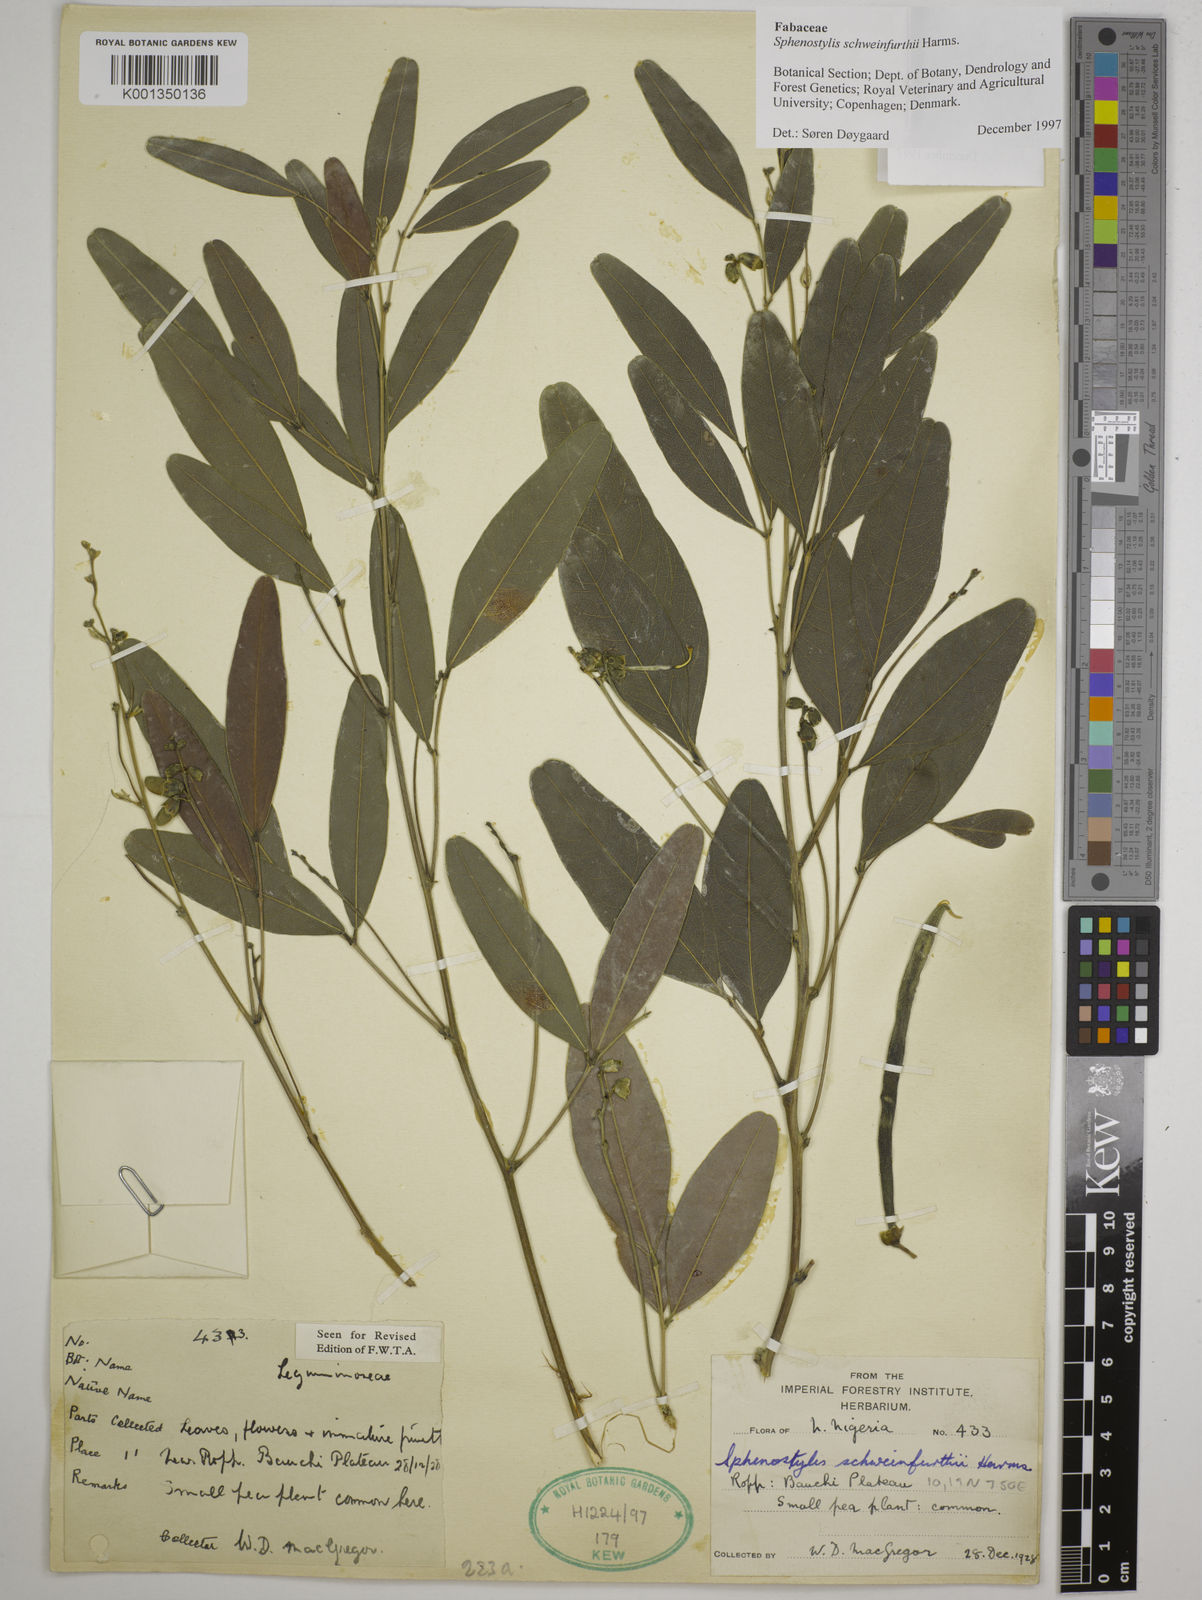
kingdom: Plantae
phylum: Tracheophyta
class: Magnoliopsida
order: Fabales
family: Fabaceae
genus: Sphenostylis
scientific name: Sphenostylis schweinfurthii
